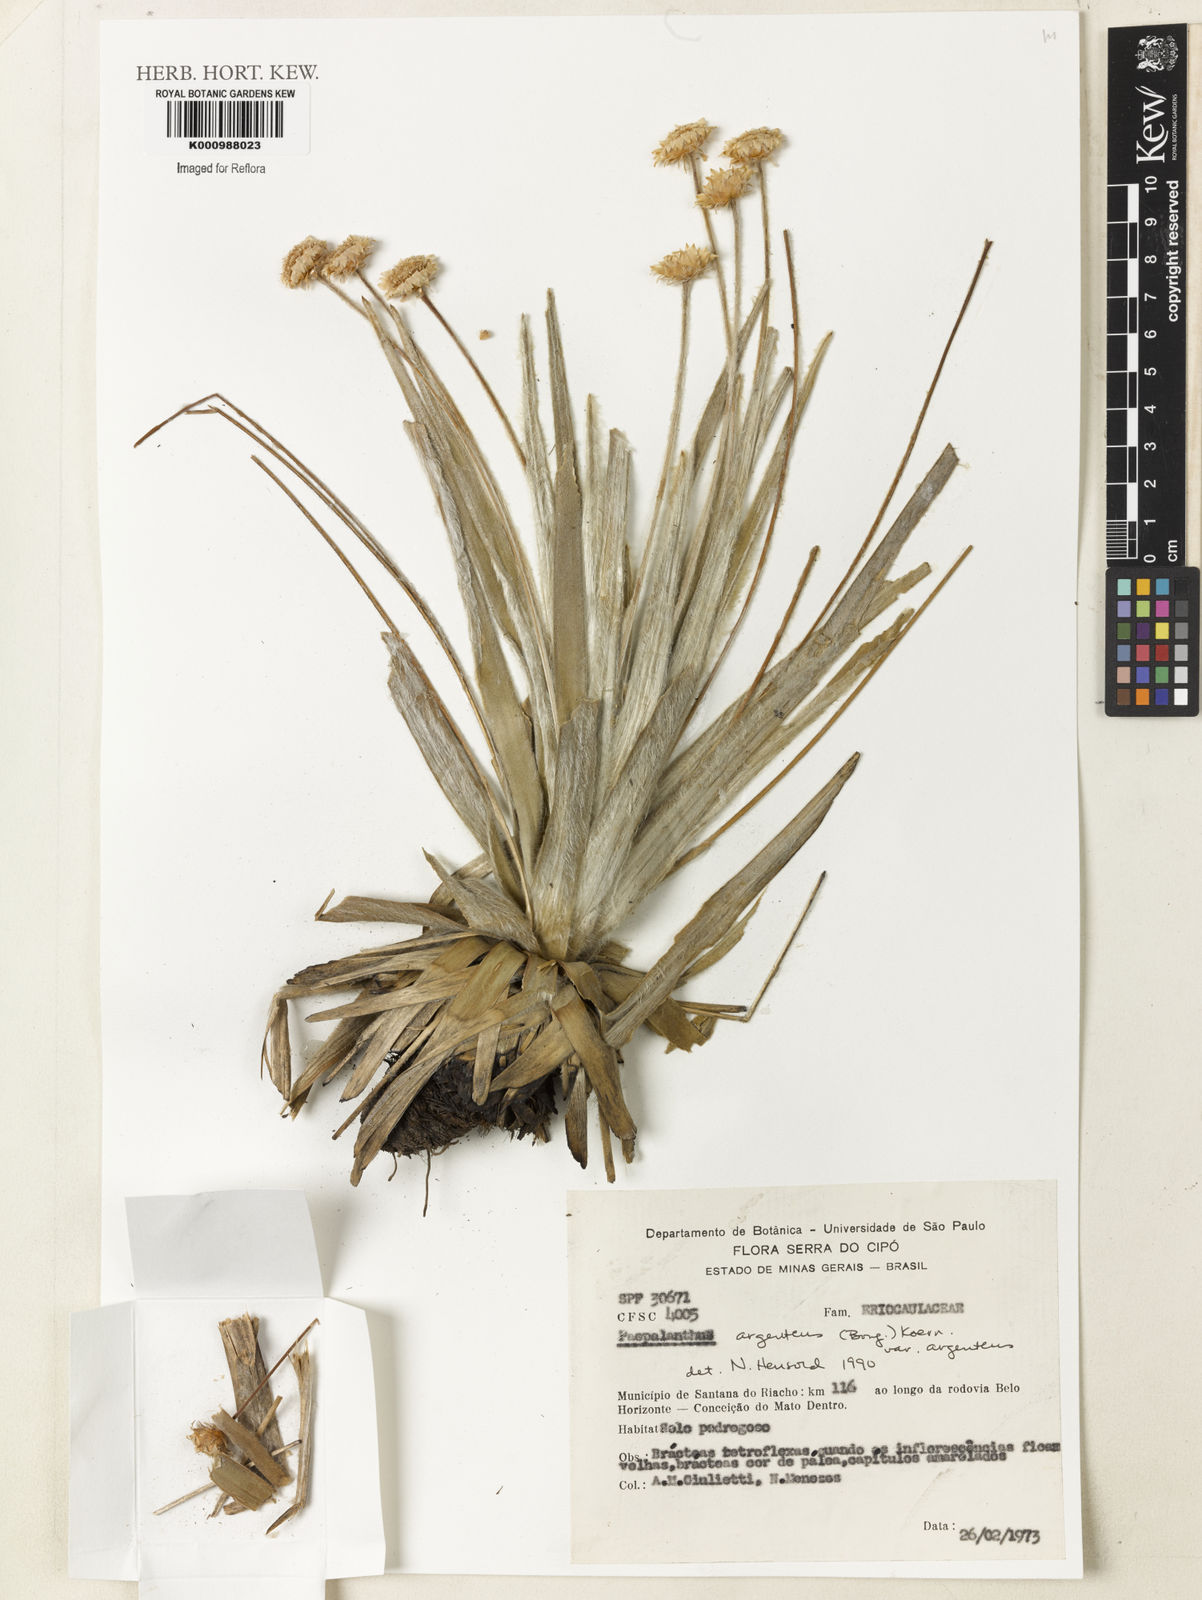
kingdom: Plantae
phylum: Tracheophyta
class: Liliopsida
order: Poales
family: Eriocaulaceae
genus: Paepalanthus
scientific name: Paepalanthus
